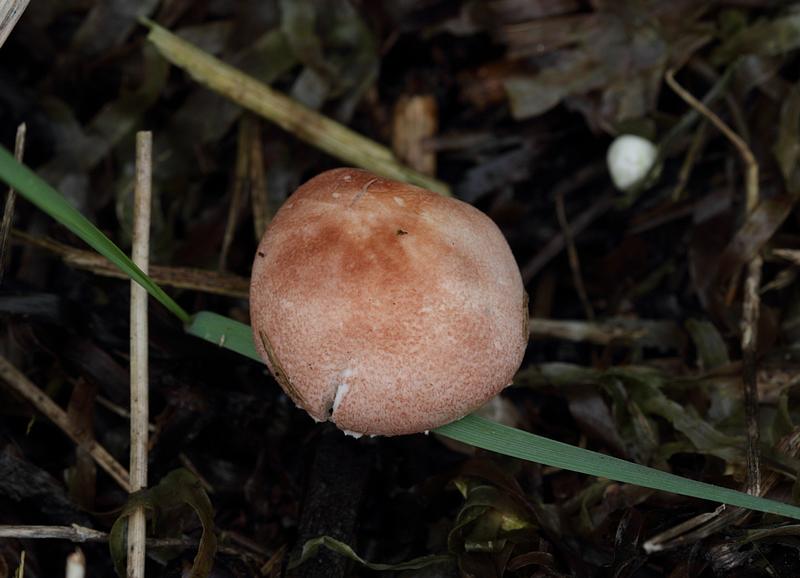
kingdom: Fungi
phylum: Basidiomycota
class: Agaricomycetes
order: Agaricales
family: Agaricaceae
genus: Lepiota
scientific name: Lepiota subincarnata
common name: kødfarvet parasolhat
